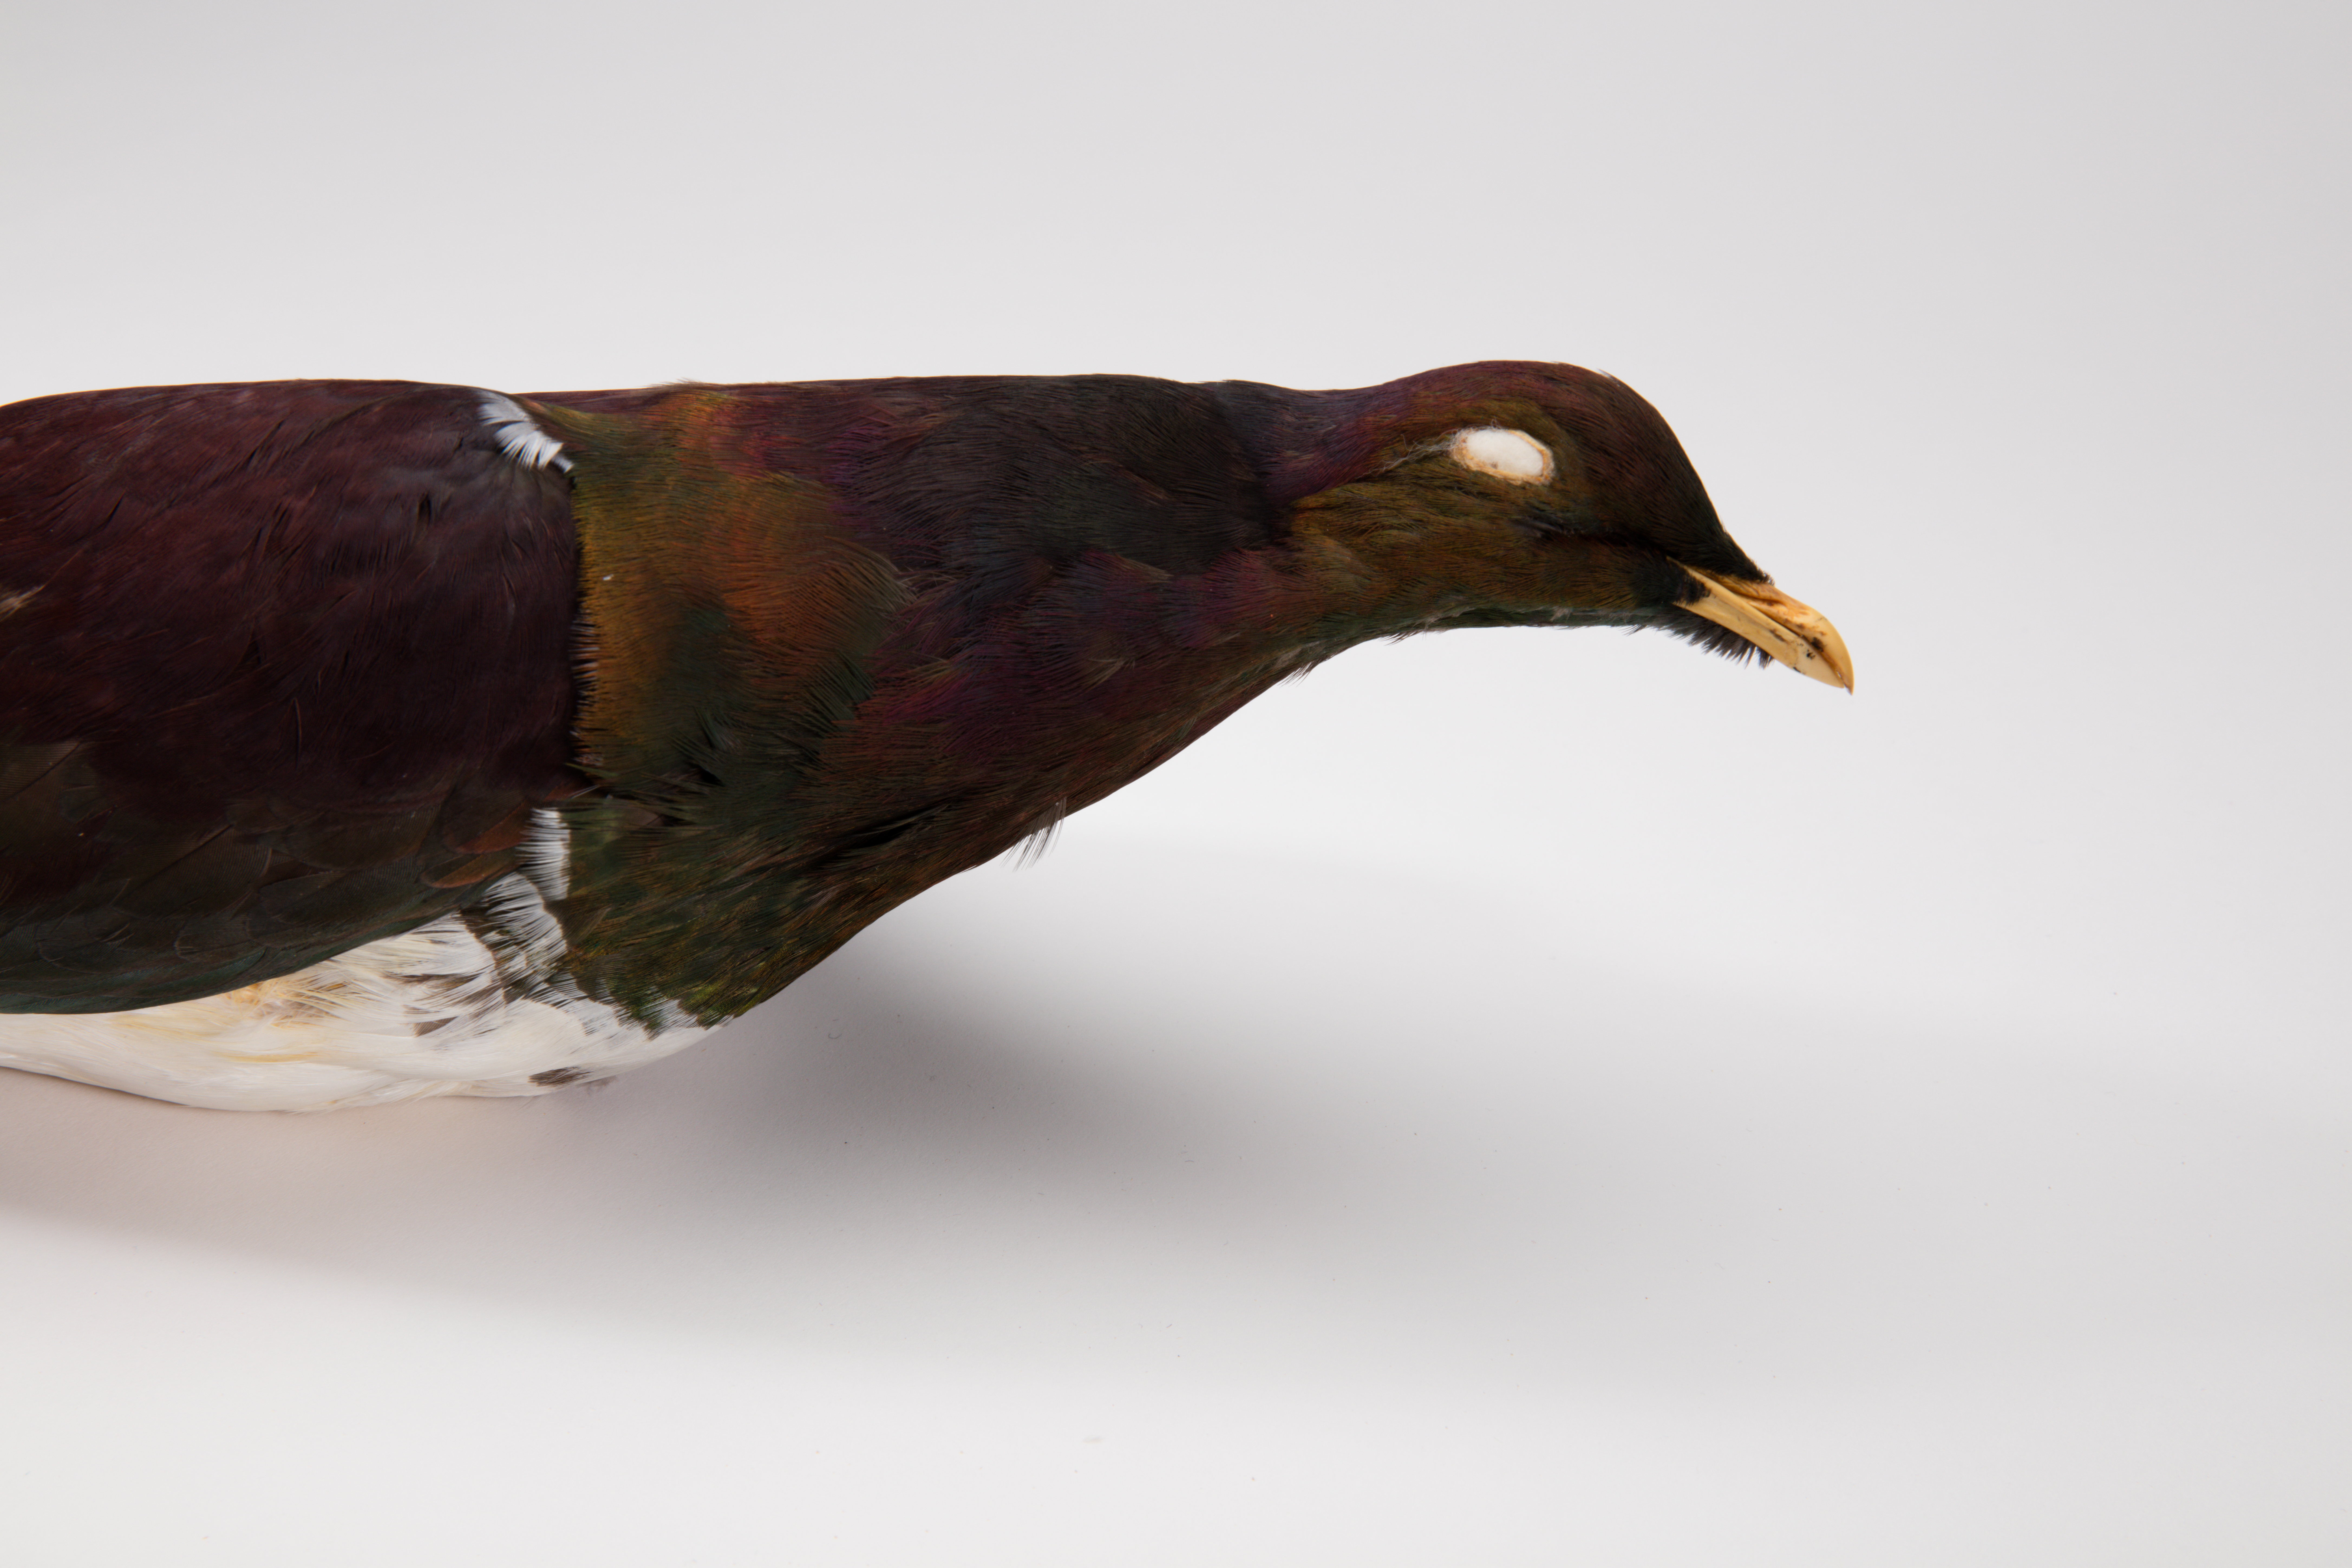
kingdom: Animalia
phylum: Chordata
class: Aves
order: Columbiformes
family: Columbidae
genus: Hemiphaga
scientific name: Hemiphaga novaeseelandiae
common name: New zealand pigeon
